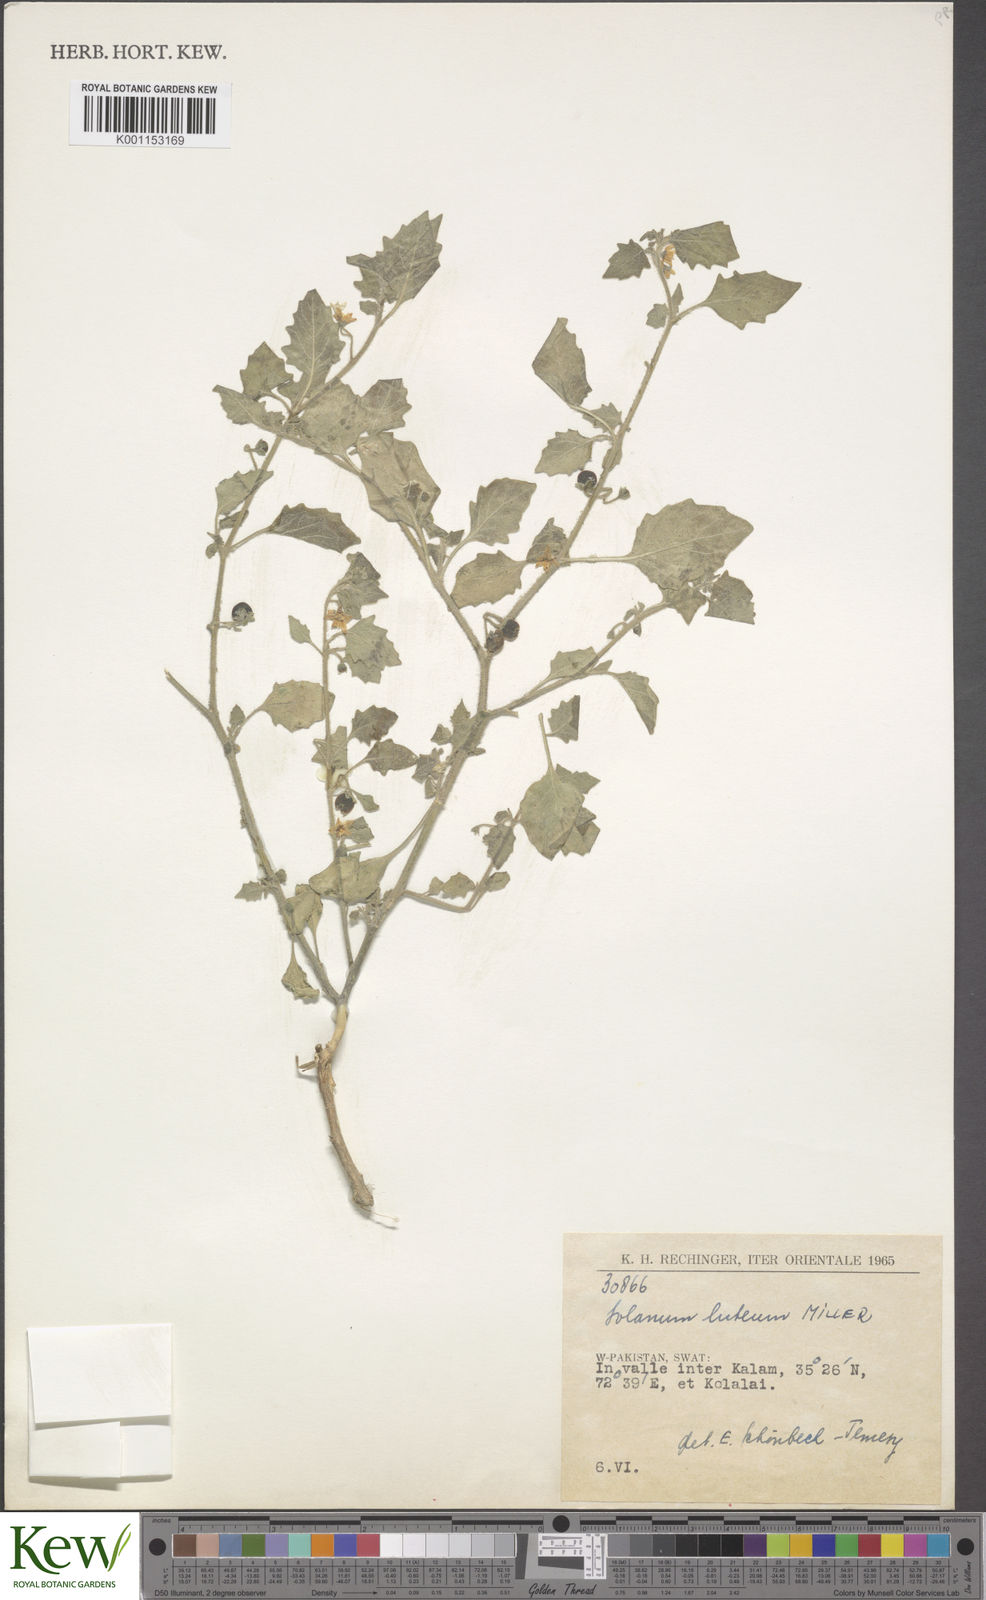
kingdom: Plantae
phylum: Tracheophyta
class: Magnoliopsida
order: Solanales
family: Solanaceae
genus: Solanum
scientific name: Solanum villosum
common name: Red nightshade
